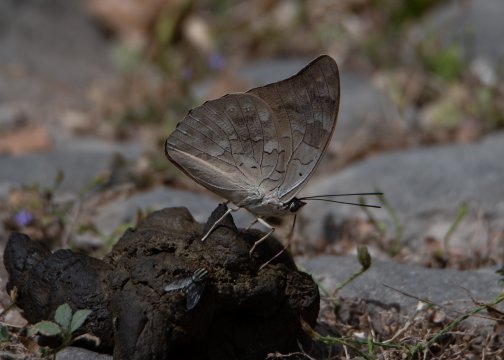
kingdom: Animalia
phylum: Arthropoda
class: Insecta
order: Lepidoptera
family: Nymphalidae
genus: Prepona
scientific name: Prepona demophoon
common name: Two-spotted Prepona
